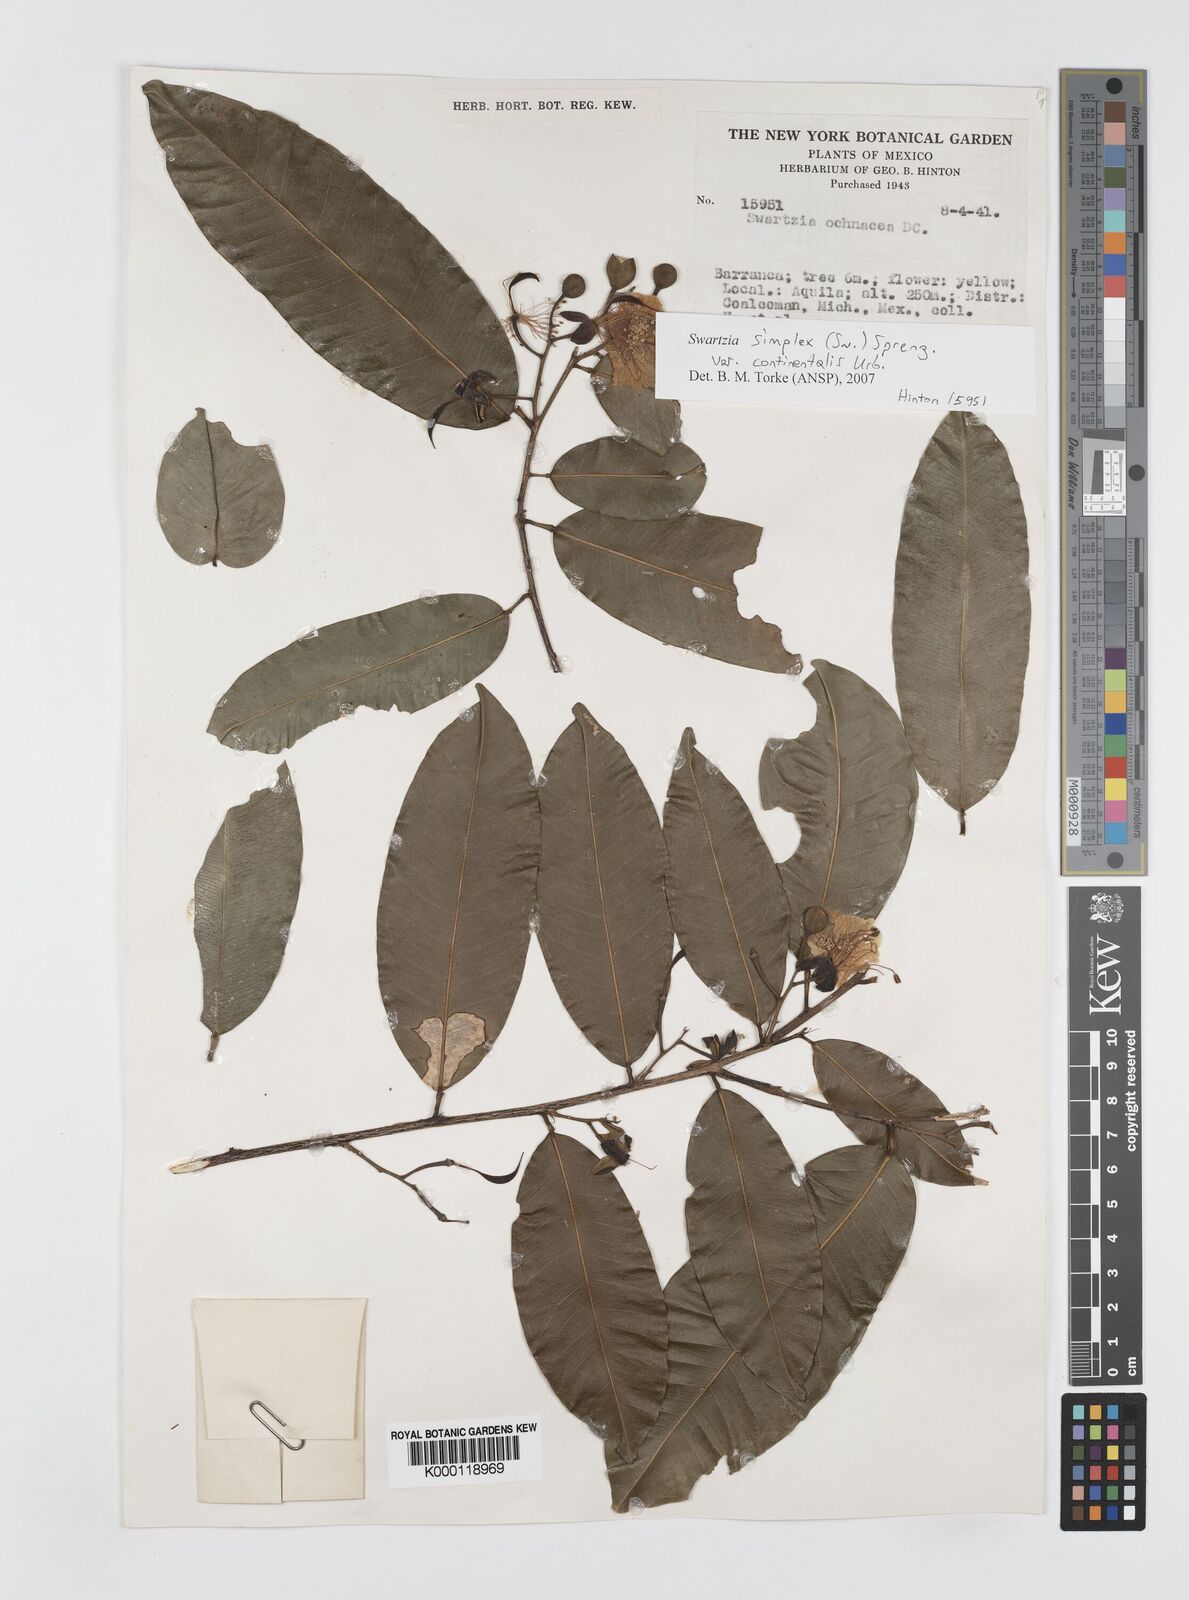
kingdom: Plantae
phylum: Tracheophyta
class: Magnoliopsida
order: Fabales
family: Fabaceae
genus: Swartzia
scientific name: Swartzia simplex
